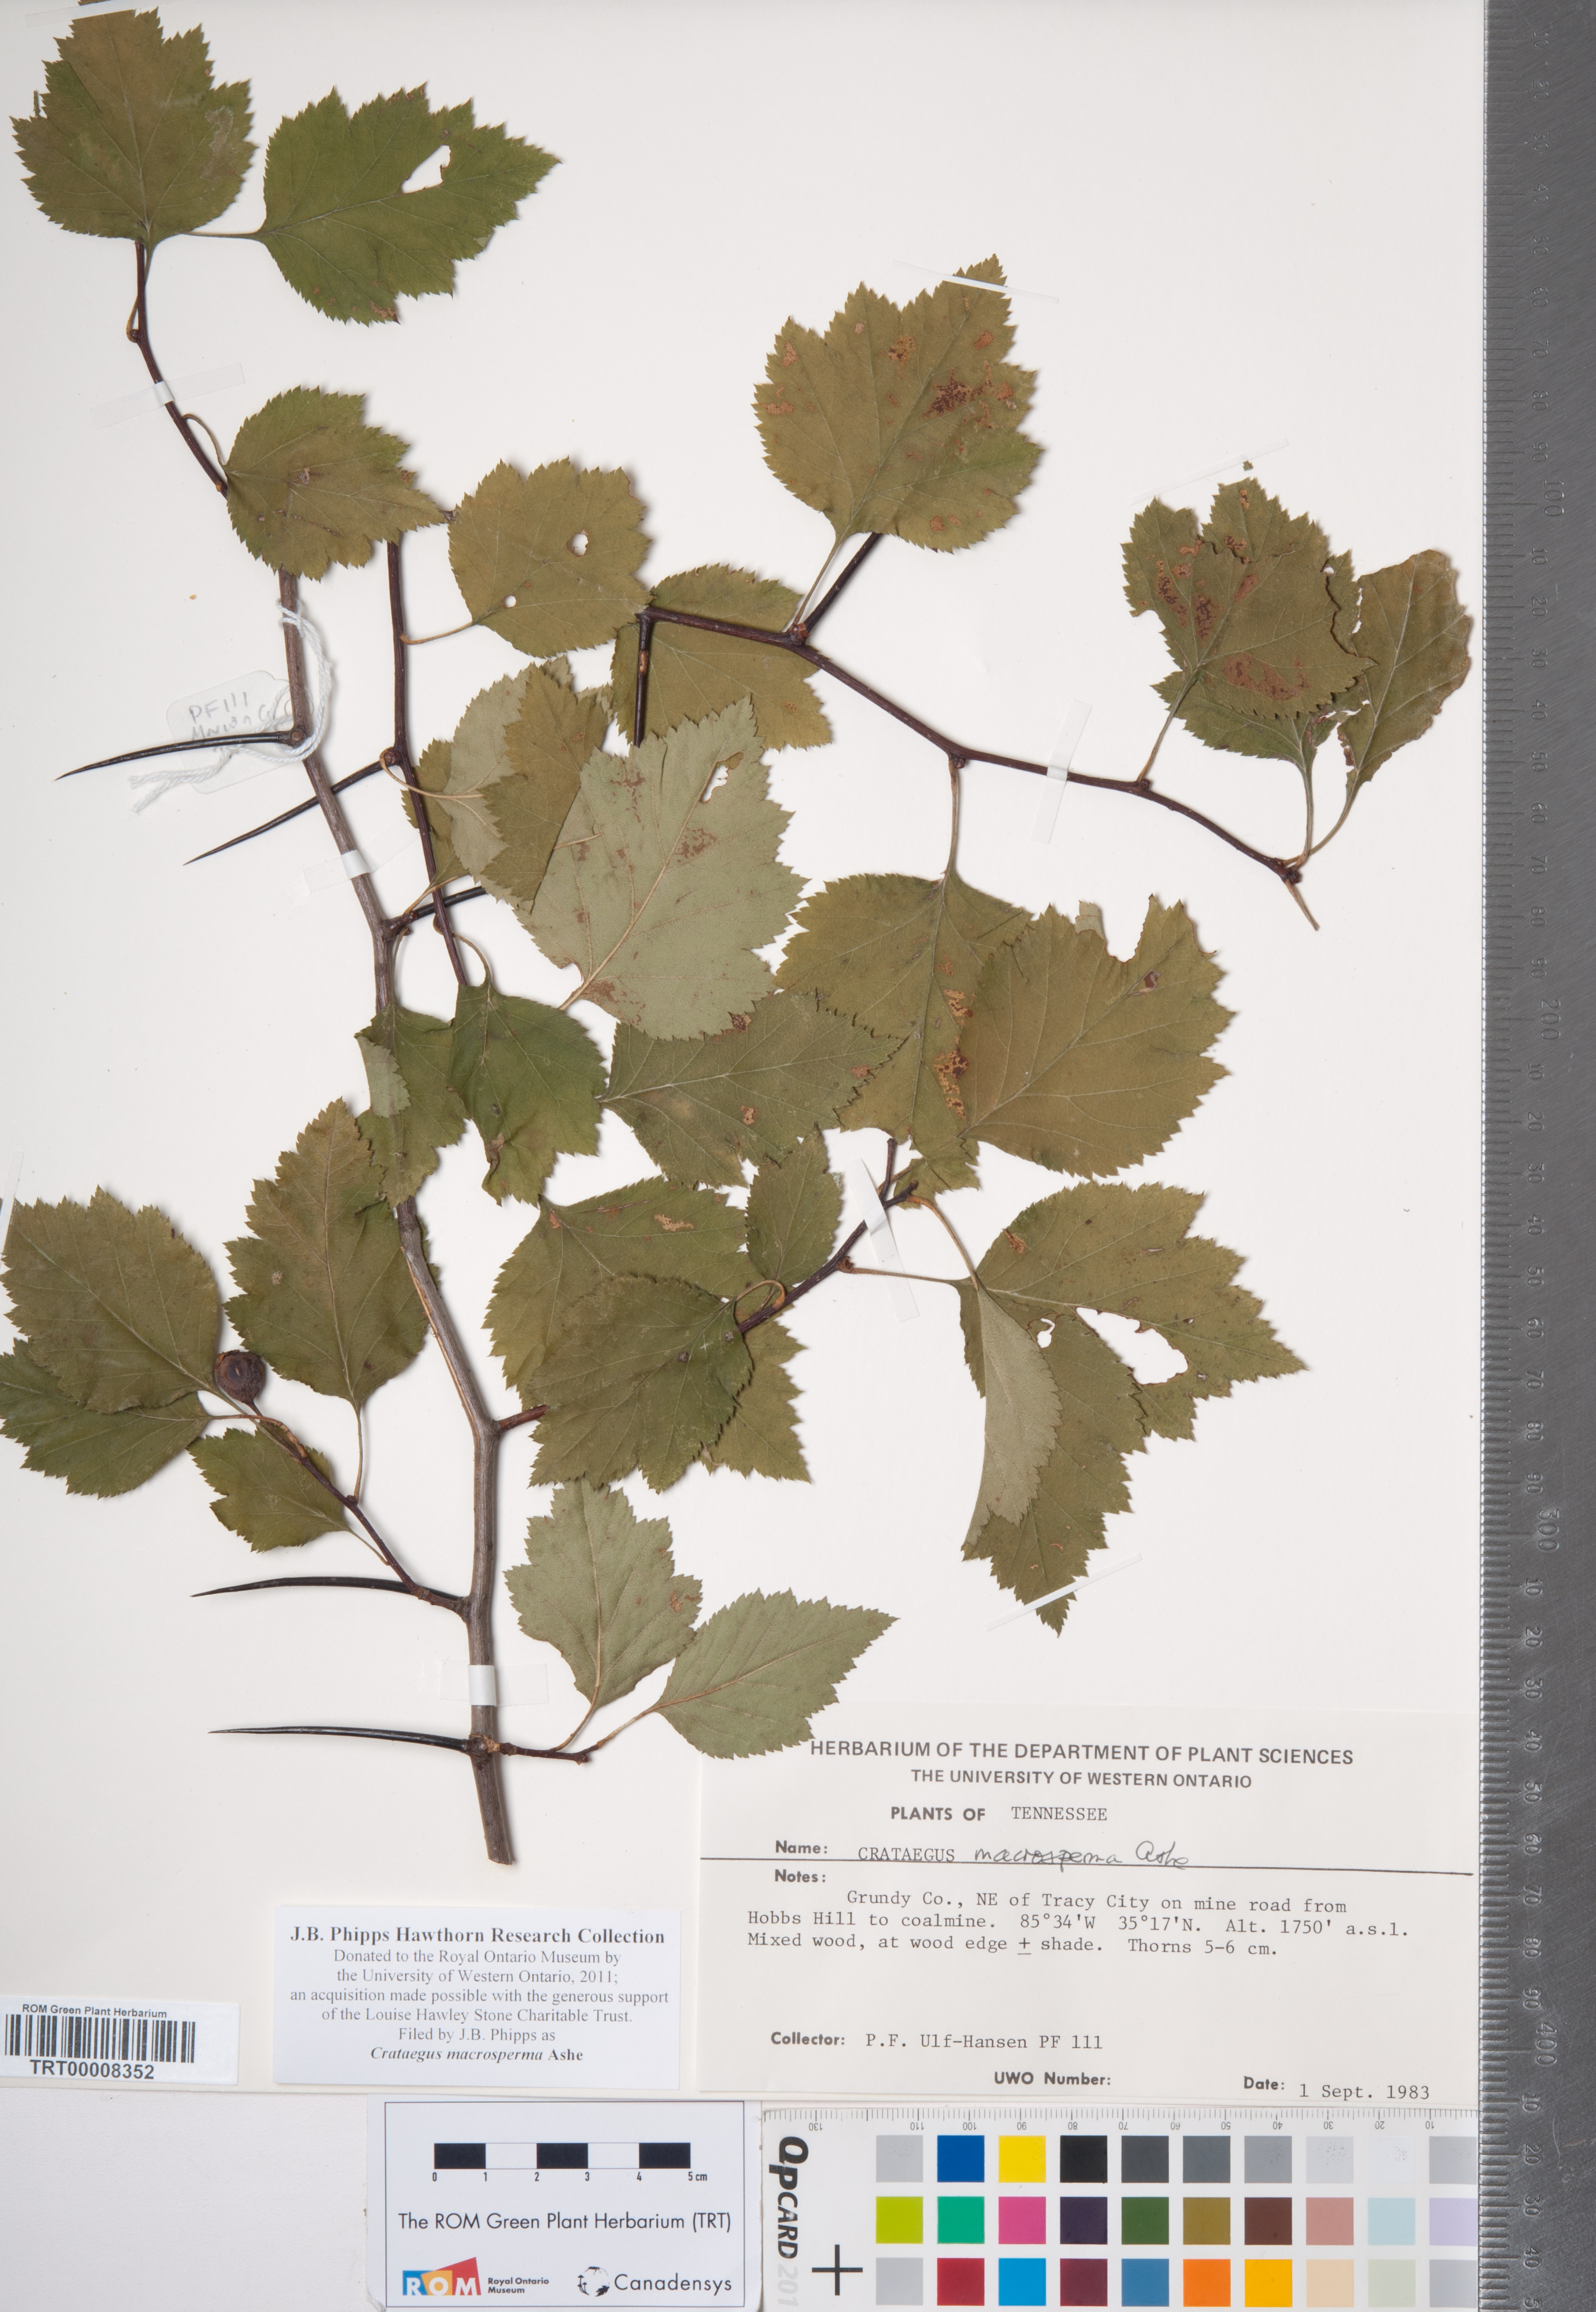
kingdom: Plantae
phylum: Tracheophyta
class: Magnoliopsida
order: Rosales
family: Rosaceae
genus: Crataegus
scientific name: Crataegus macrosperma
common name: Variable hawthorn
